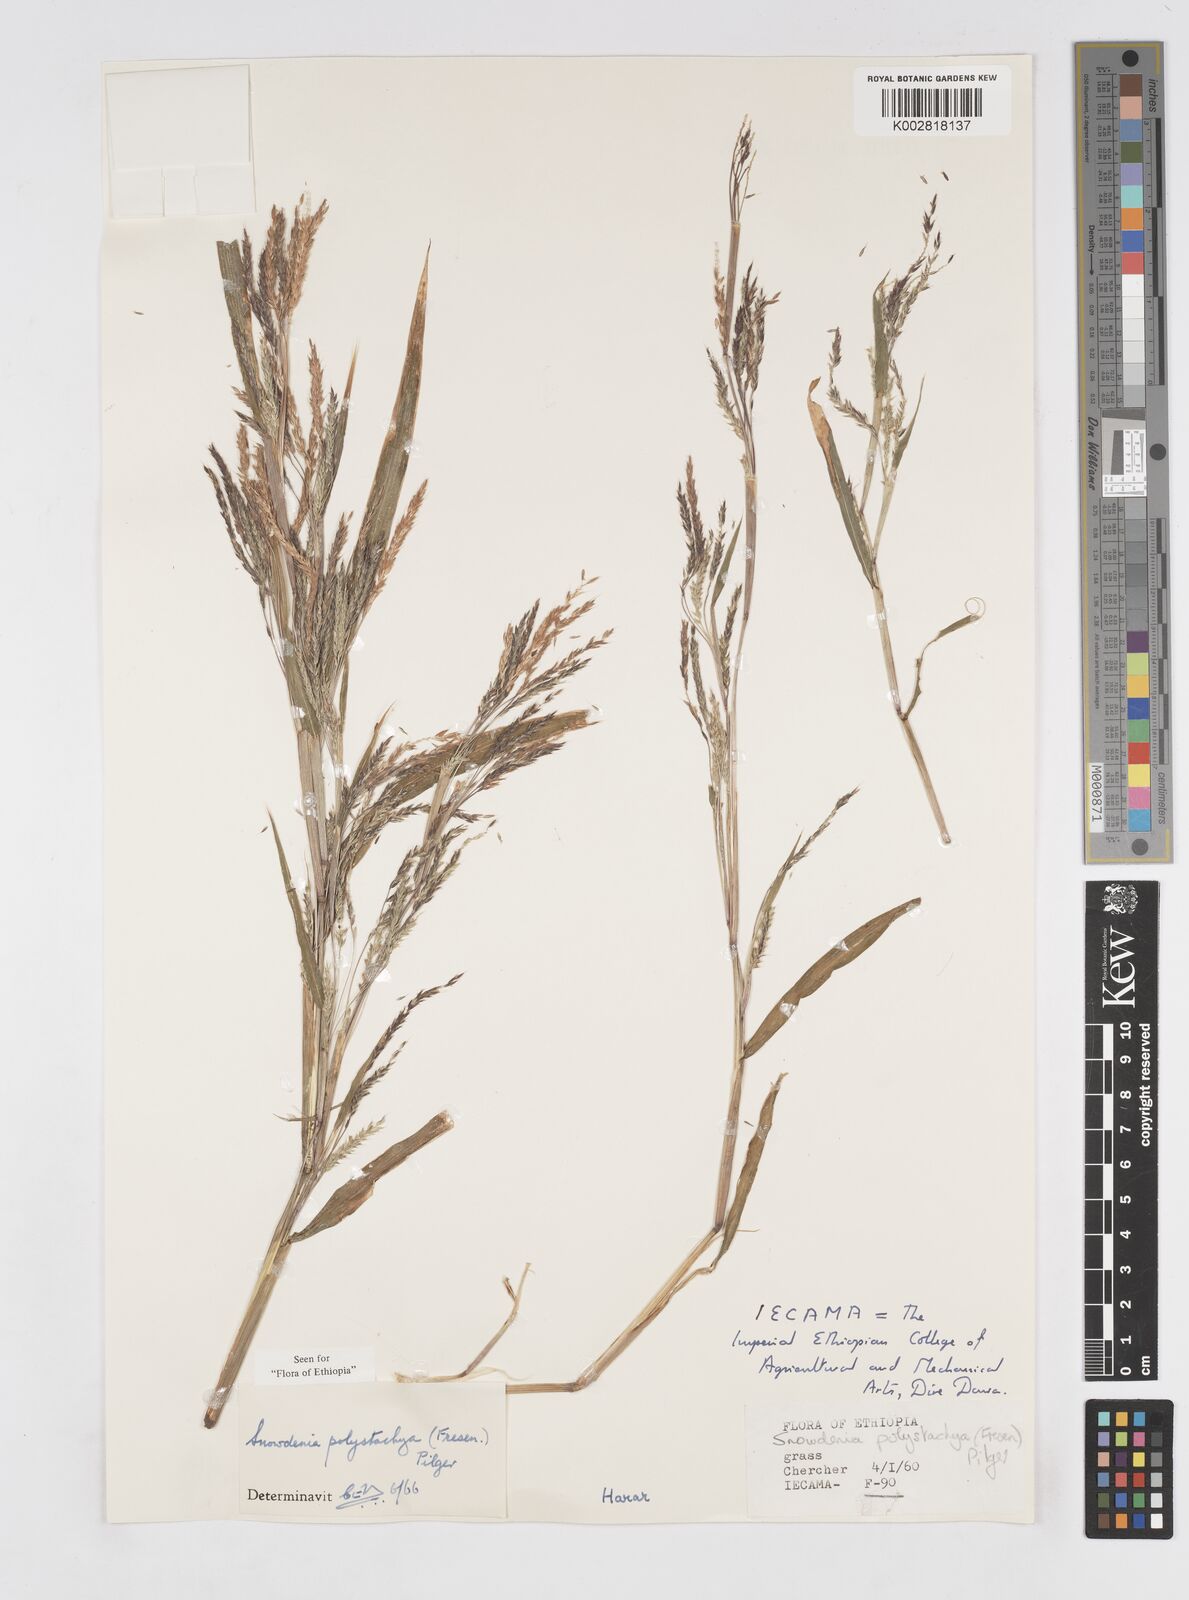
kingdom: Plantae
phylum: Tracheophyta
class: Liliopsida
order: Poales
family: Poaceae
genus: Snowdenia
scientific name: Snowdenia polystachya
